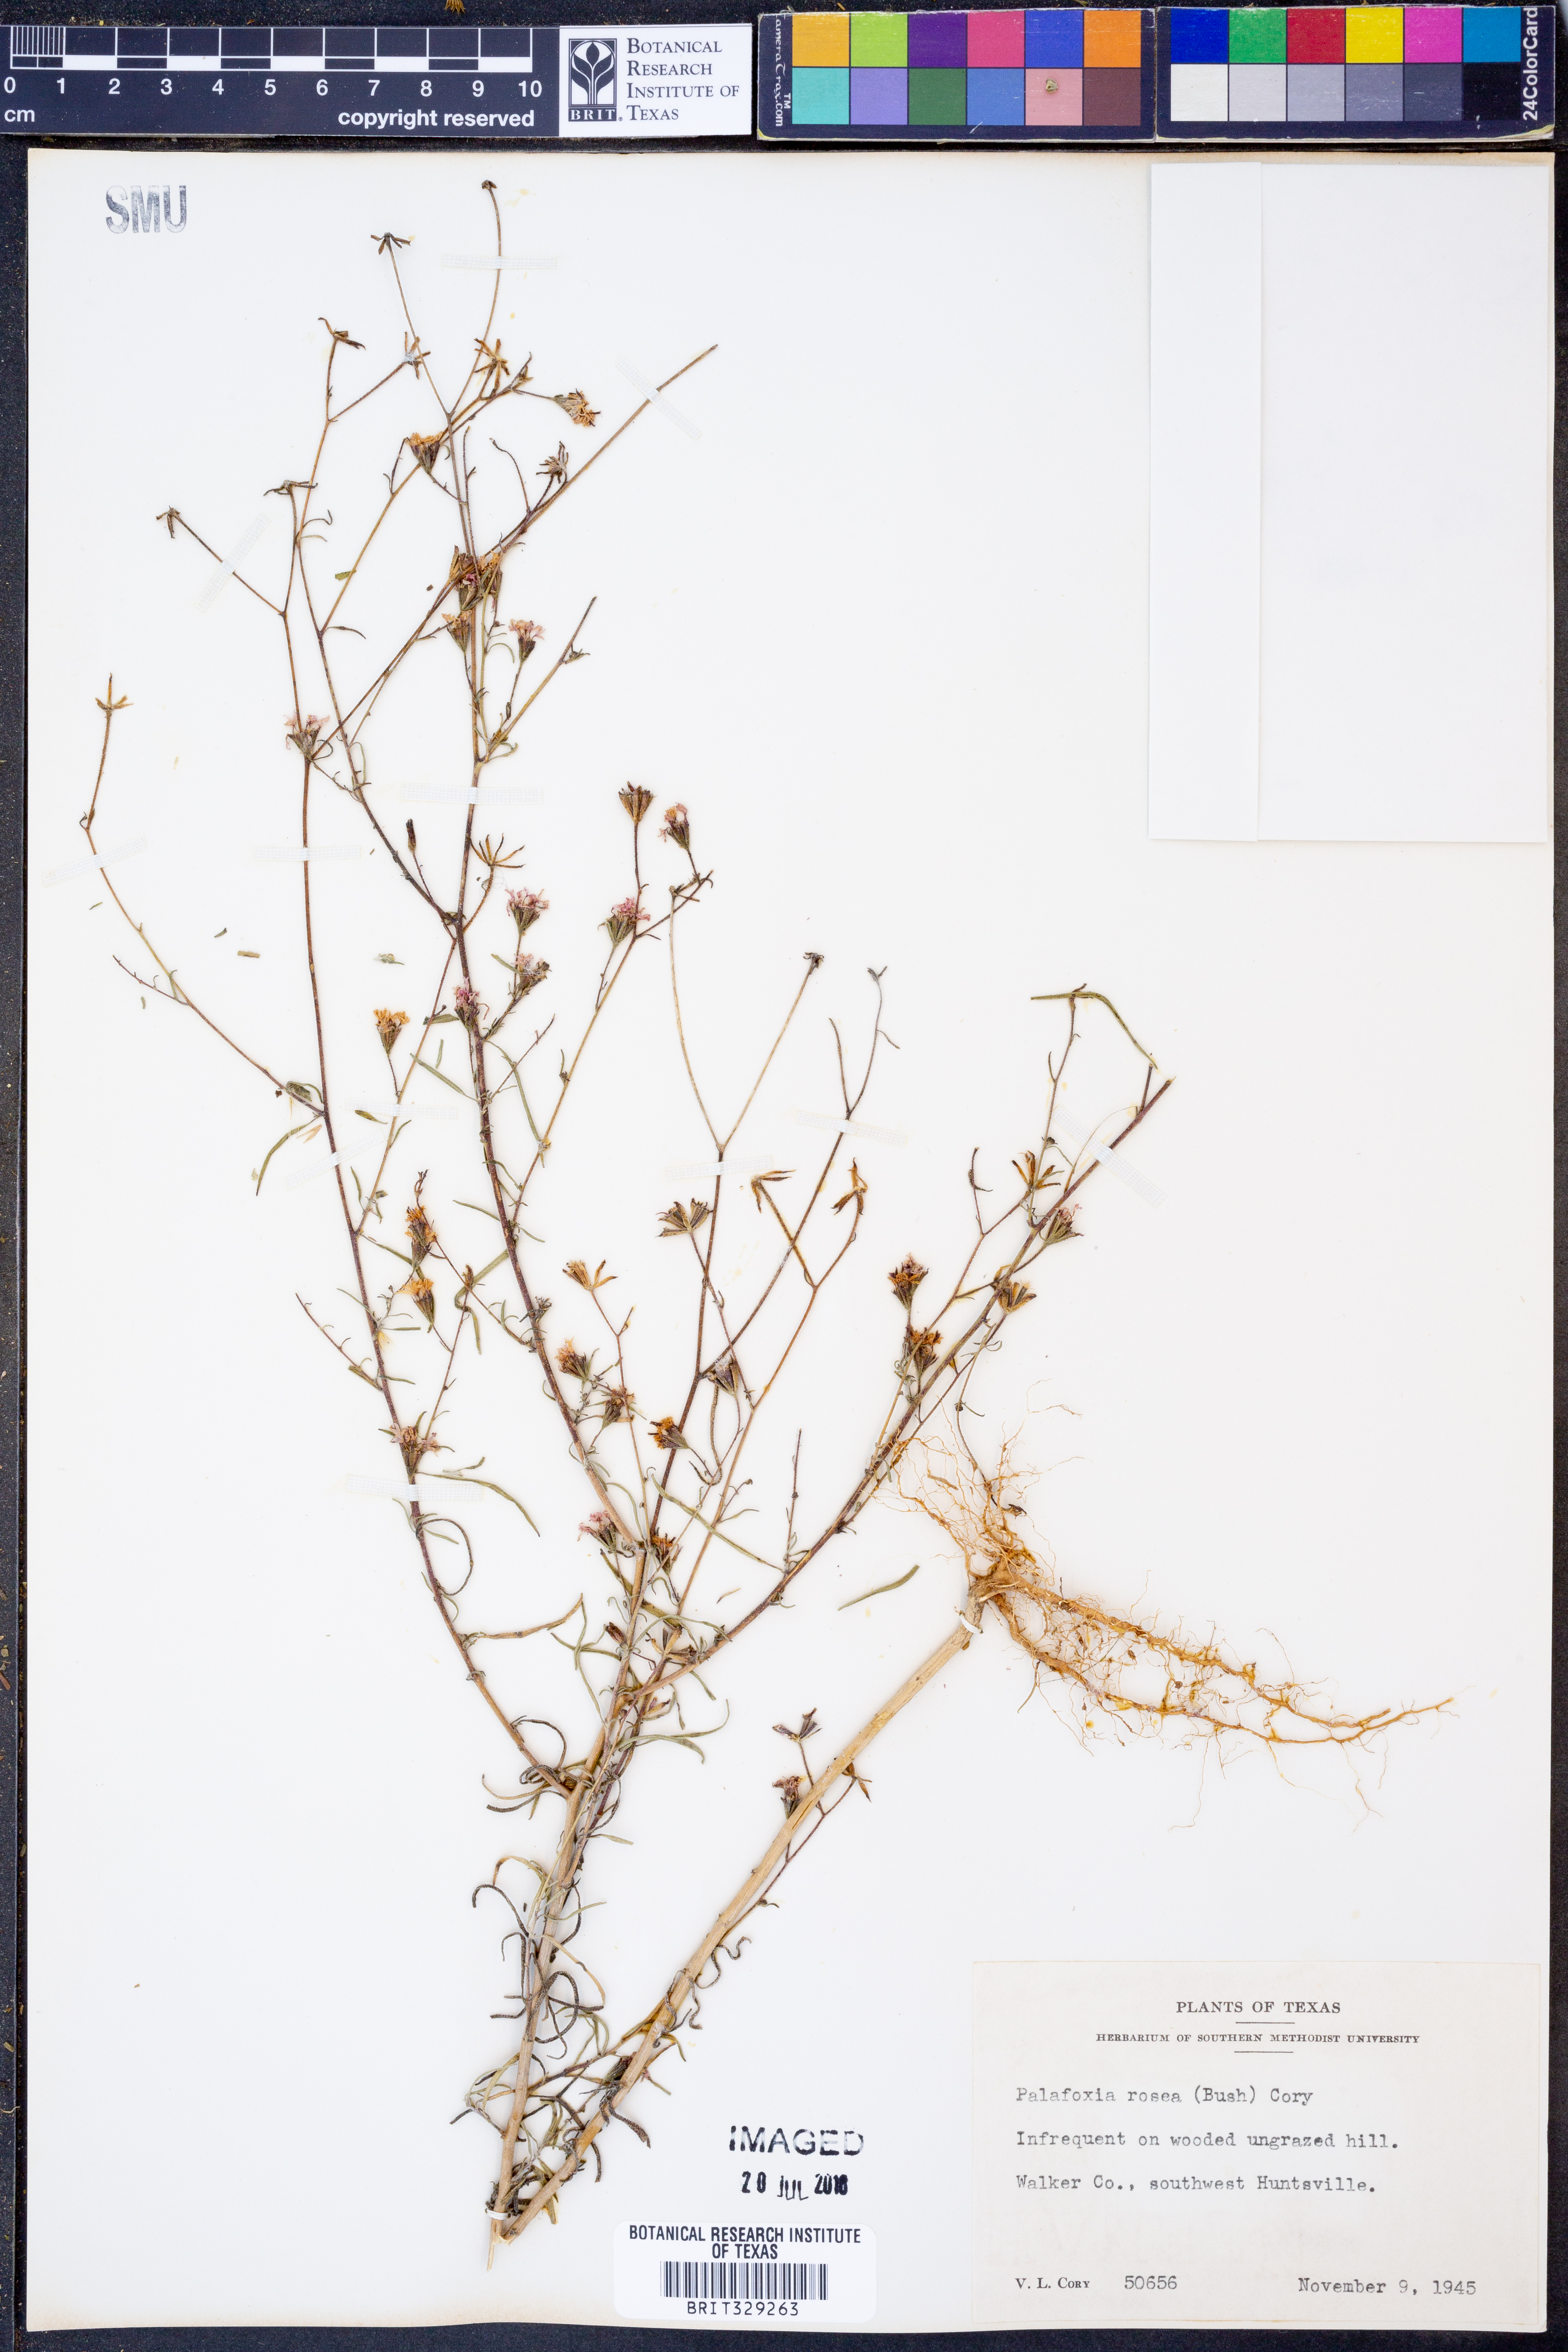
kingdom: Plantae
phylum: Tracheophyta
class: Magnoliopsida
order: Asterales
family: Asteraceae
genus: Palafoxia
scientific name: Palafoxia rosea
